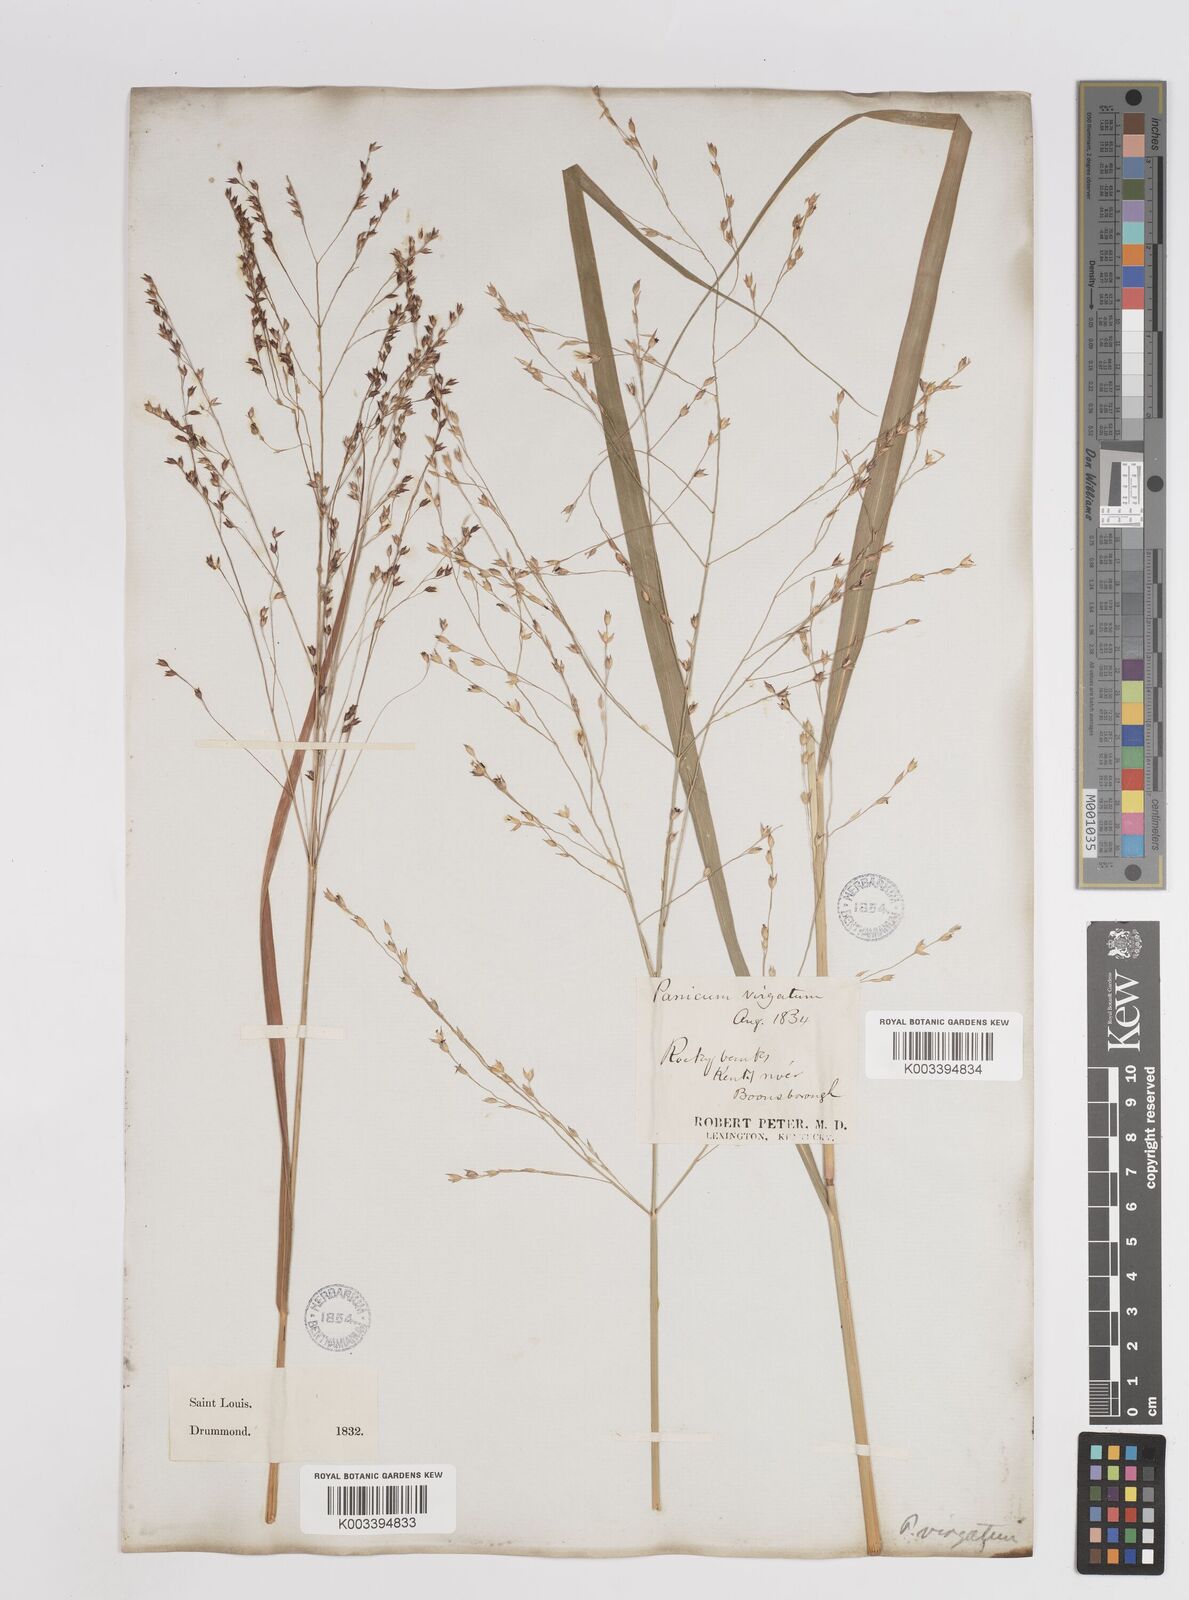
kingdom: Plantae
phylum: Tracheophyta
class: Liliopsida
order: Poales
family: Poaceae
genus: Panicum
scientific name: Panicum virgatum
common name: Switchgrass
